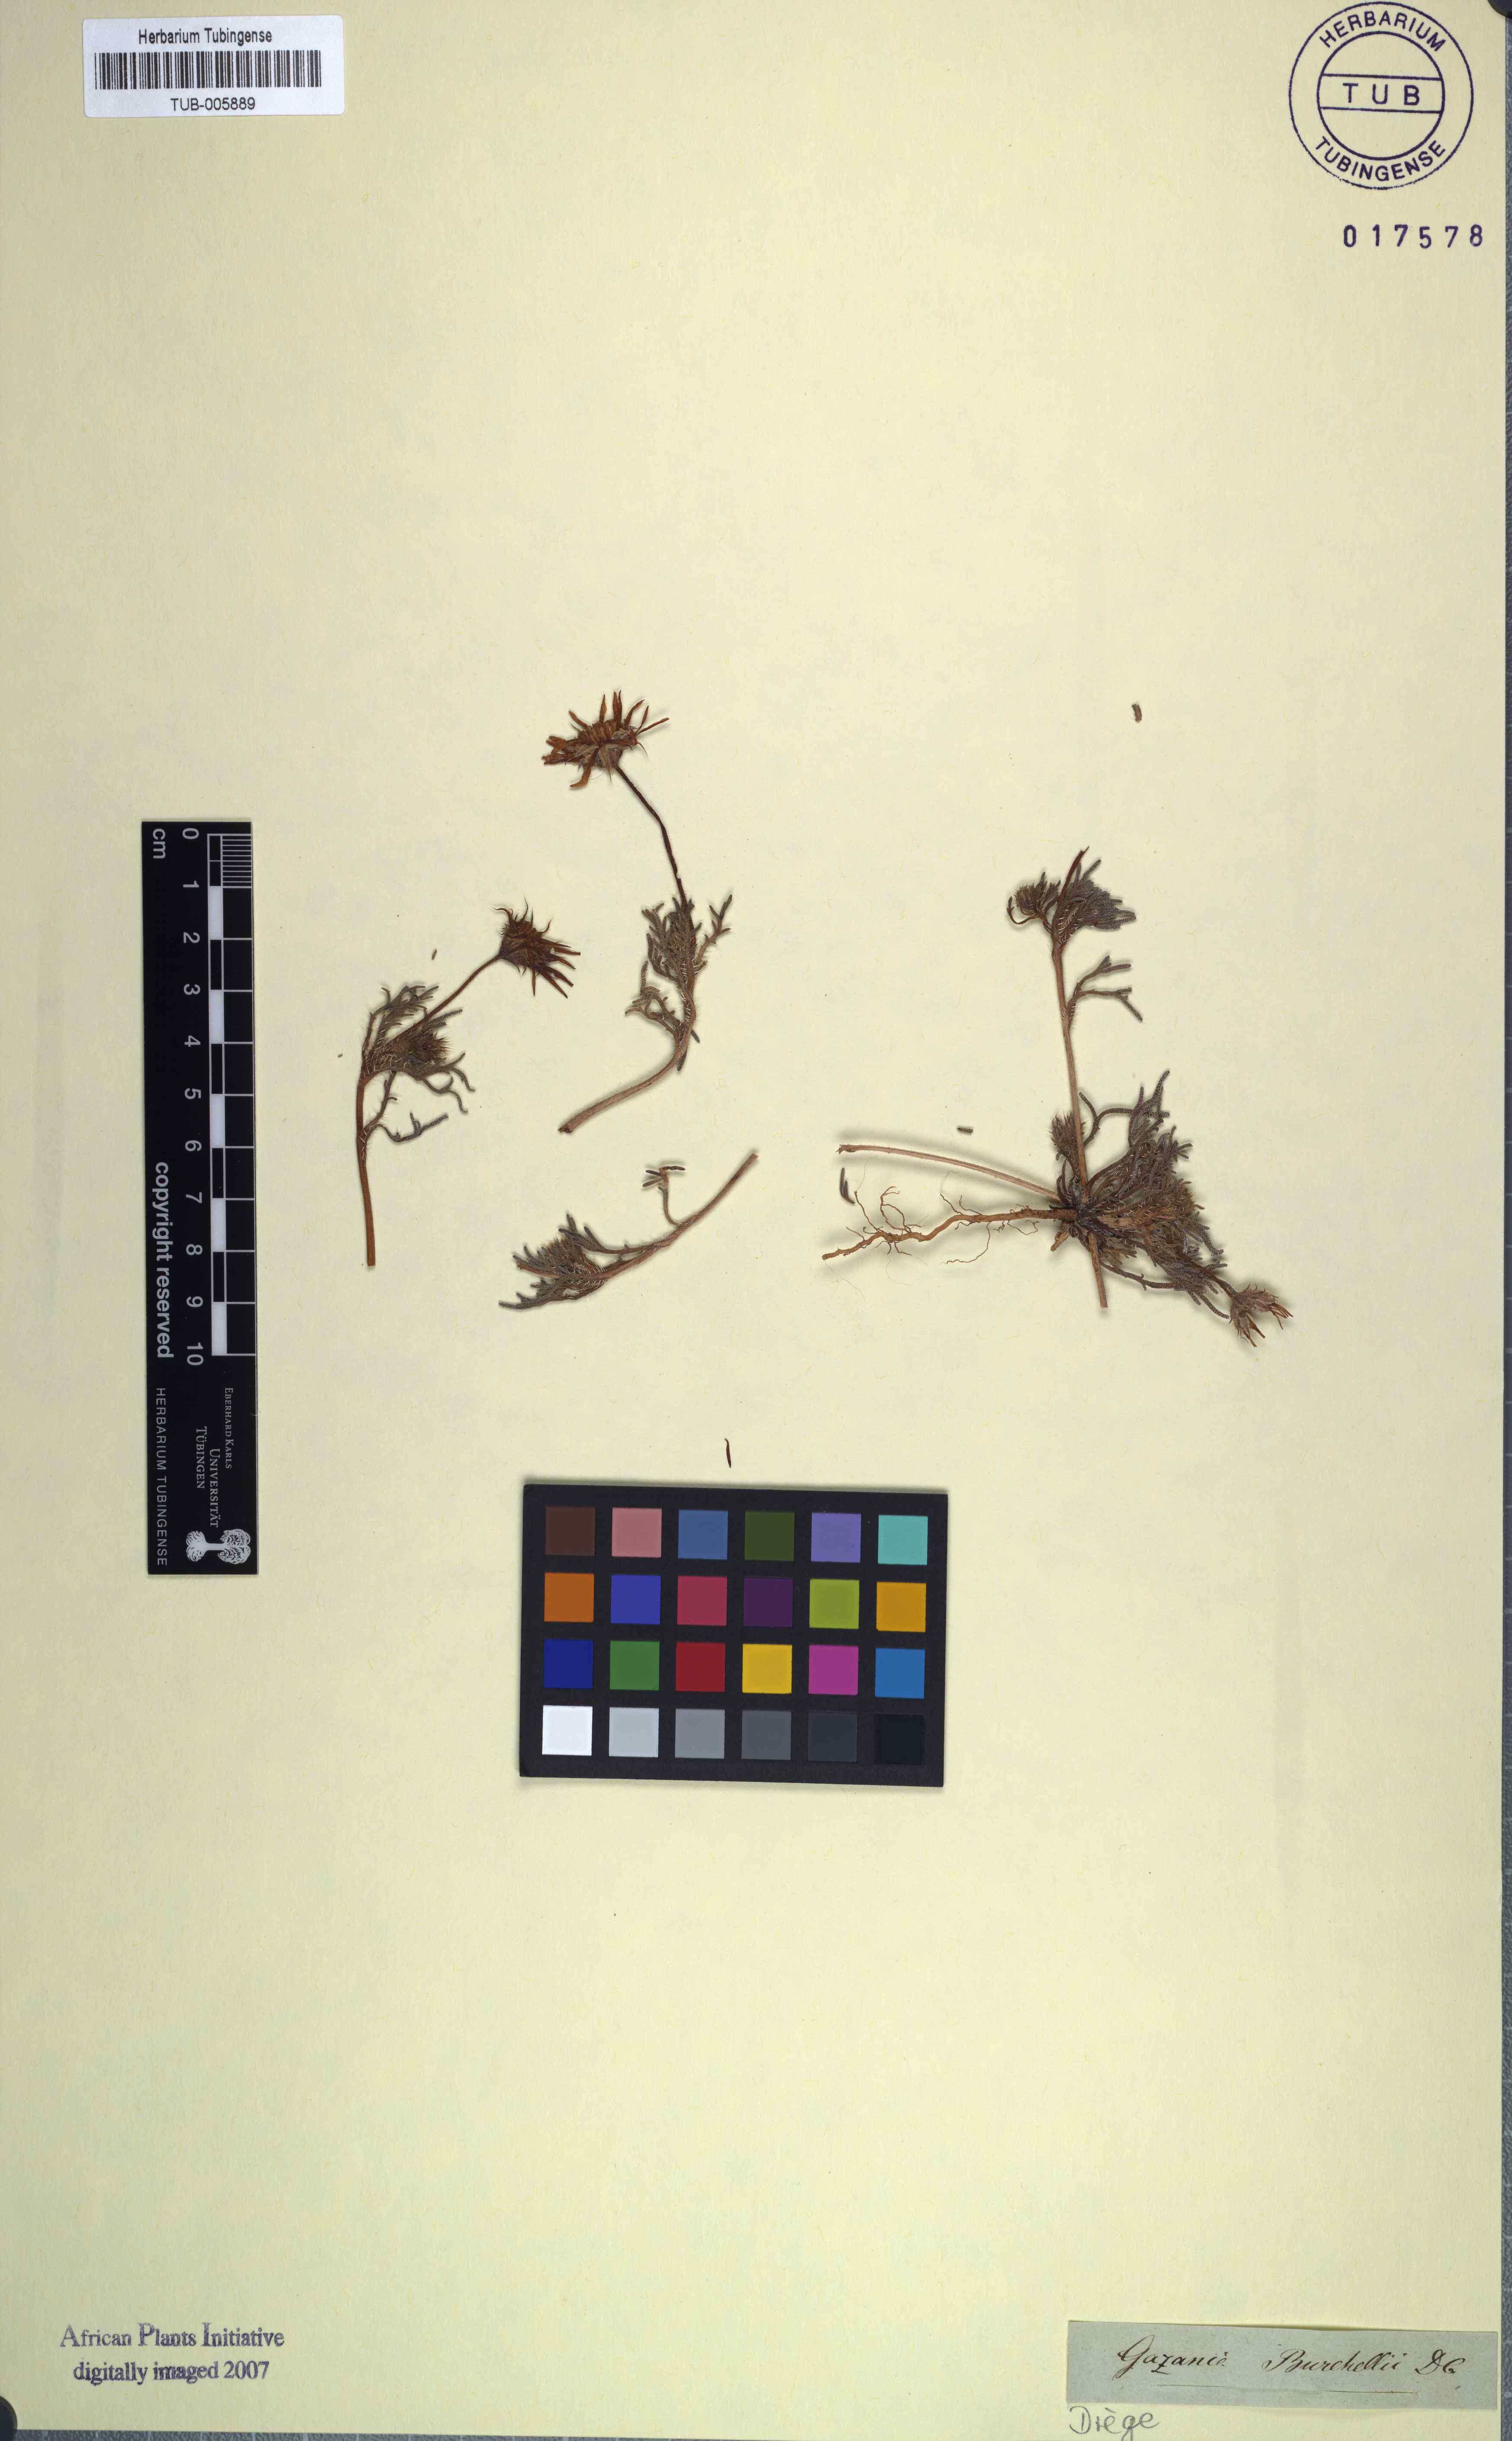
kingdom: Plantae
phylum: Tracheophyta
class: Magnoliopsida
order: Asterales
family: Asteraceae
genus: Hirpicium
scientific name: Hirpicium echinus
